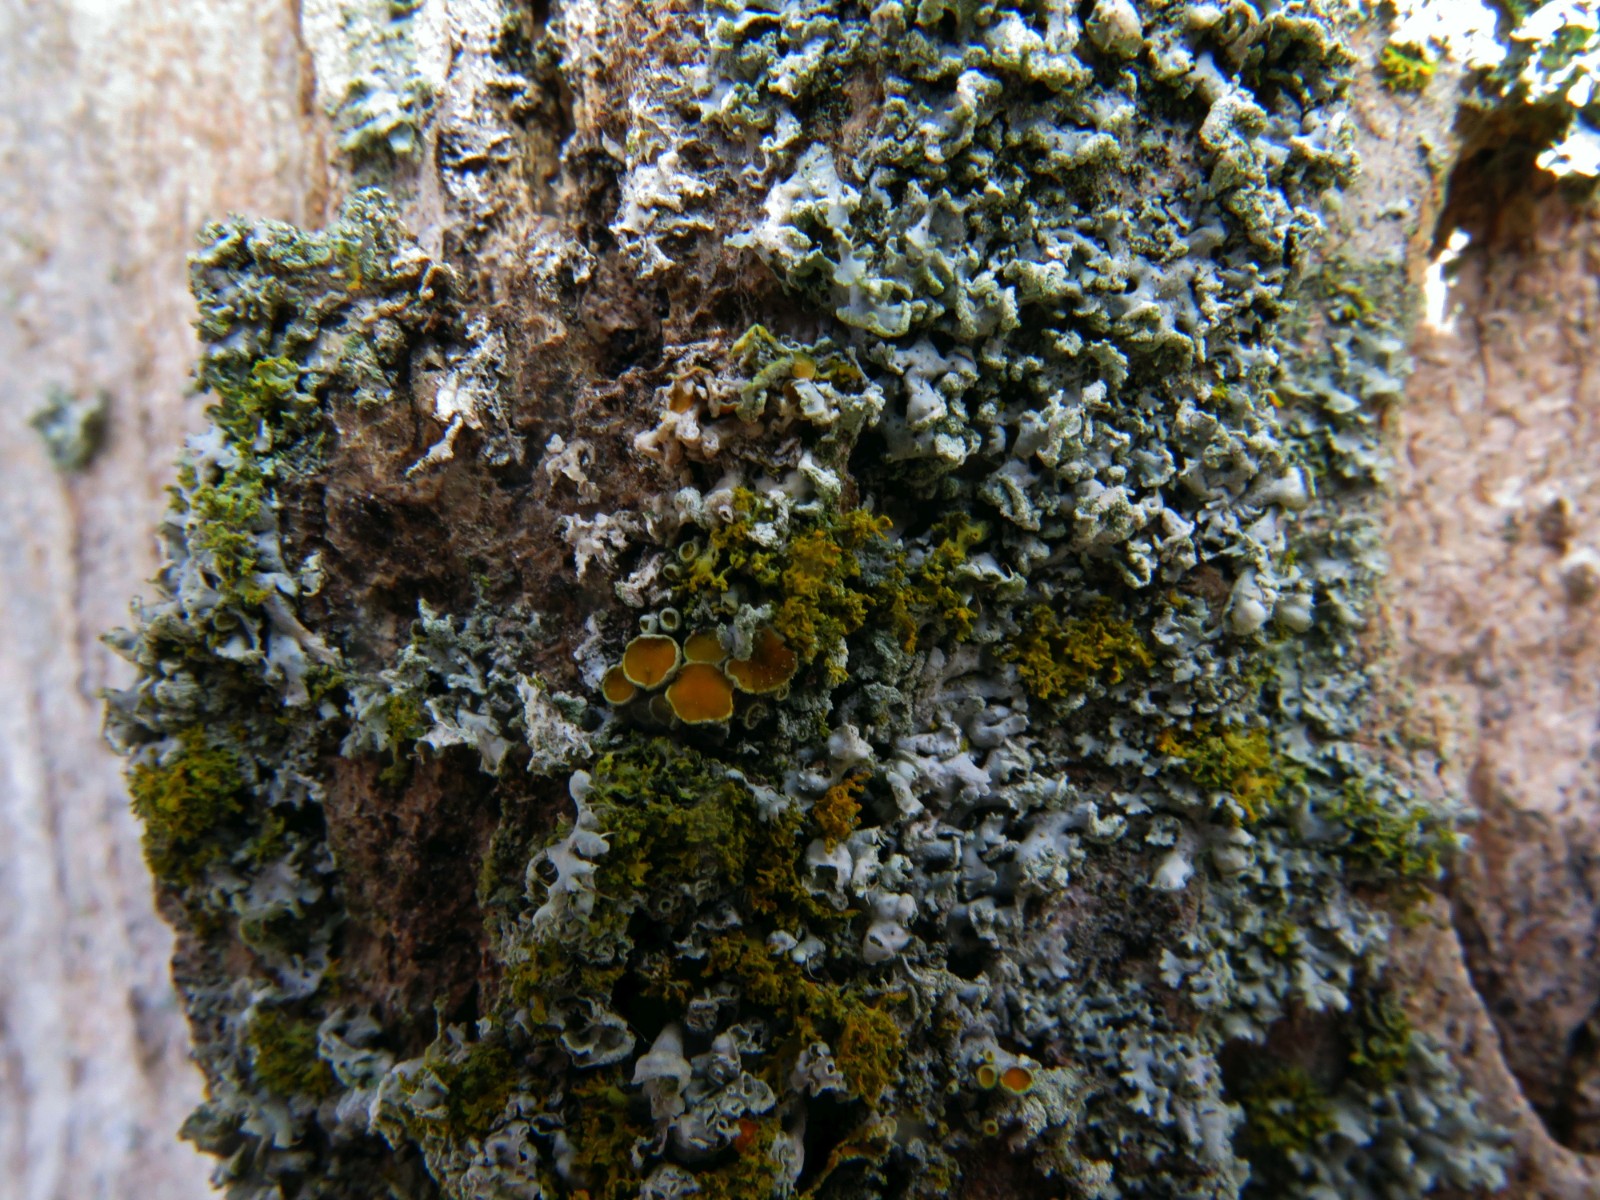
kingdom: Fungi
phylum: Ascomycota
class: Lecanoromycetes
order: Teloschistales
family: Teloschistaceae
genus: Polycauliona
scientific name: Polycauliona polycarpa
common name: mangefrugtet orangelav
